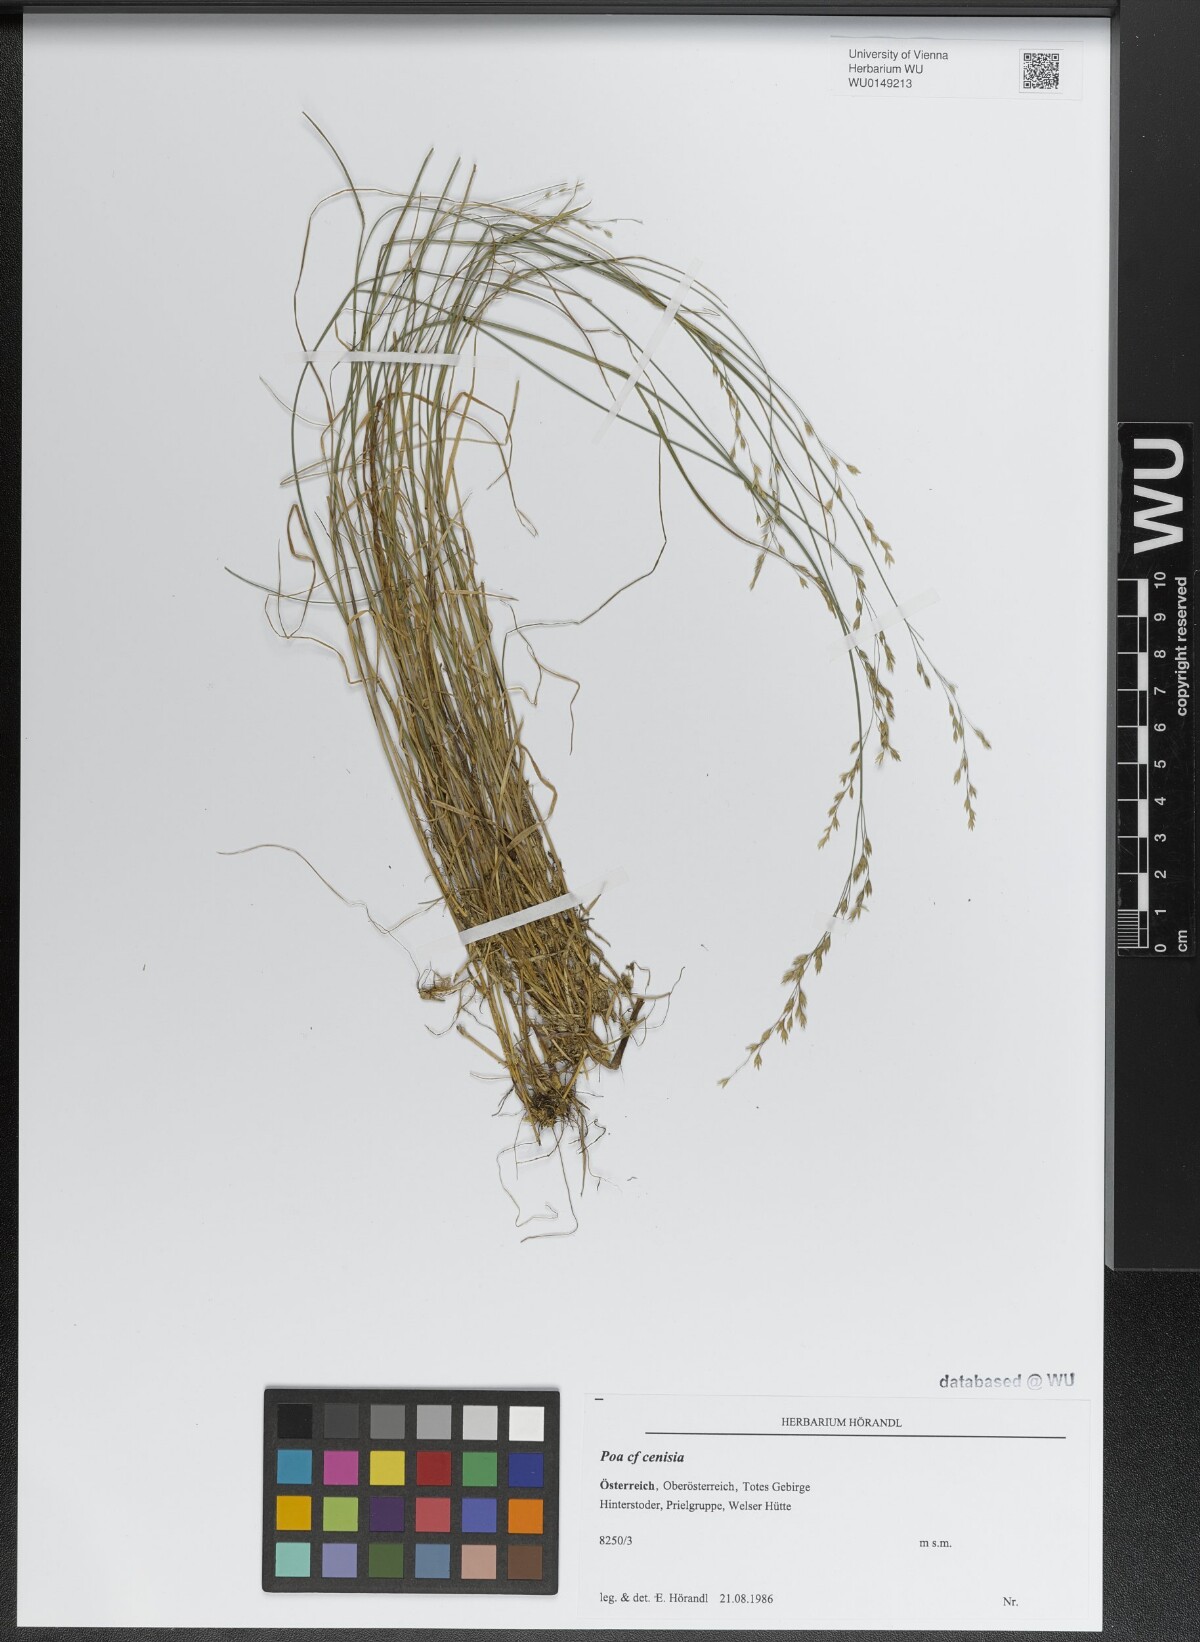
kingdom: Plantae
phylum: Tracheophyta
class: Liliopsida
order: Poales
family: Poaceae
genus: Poa
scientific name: Poa cenisia
